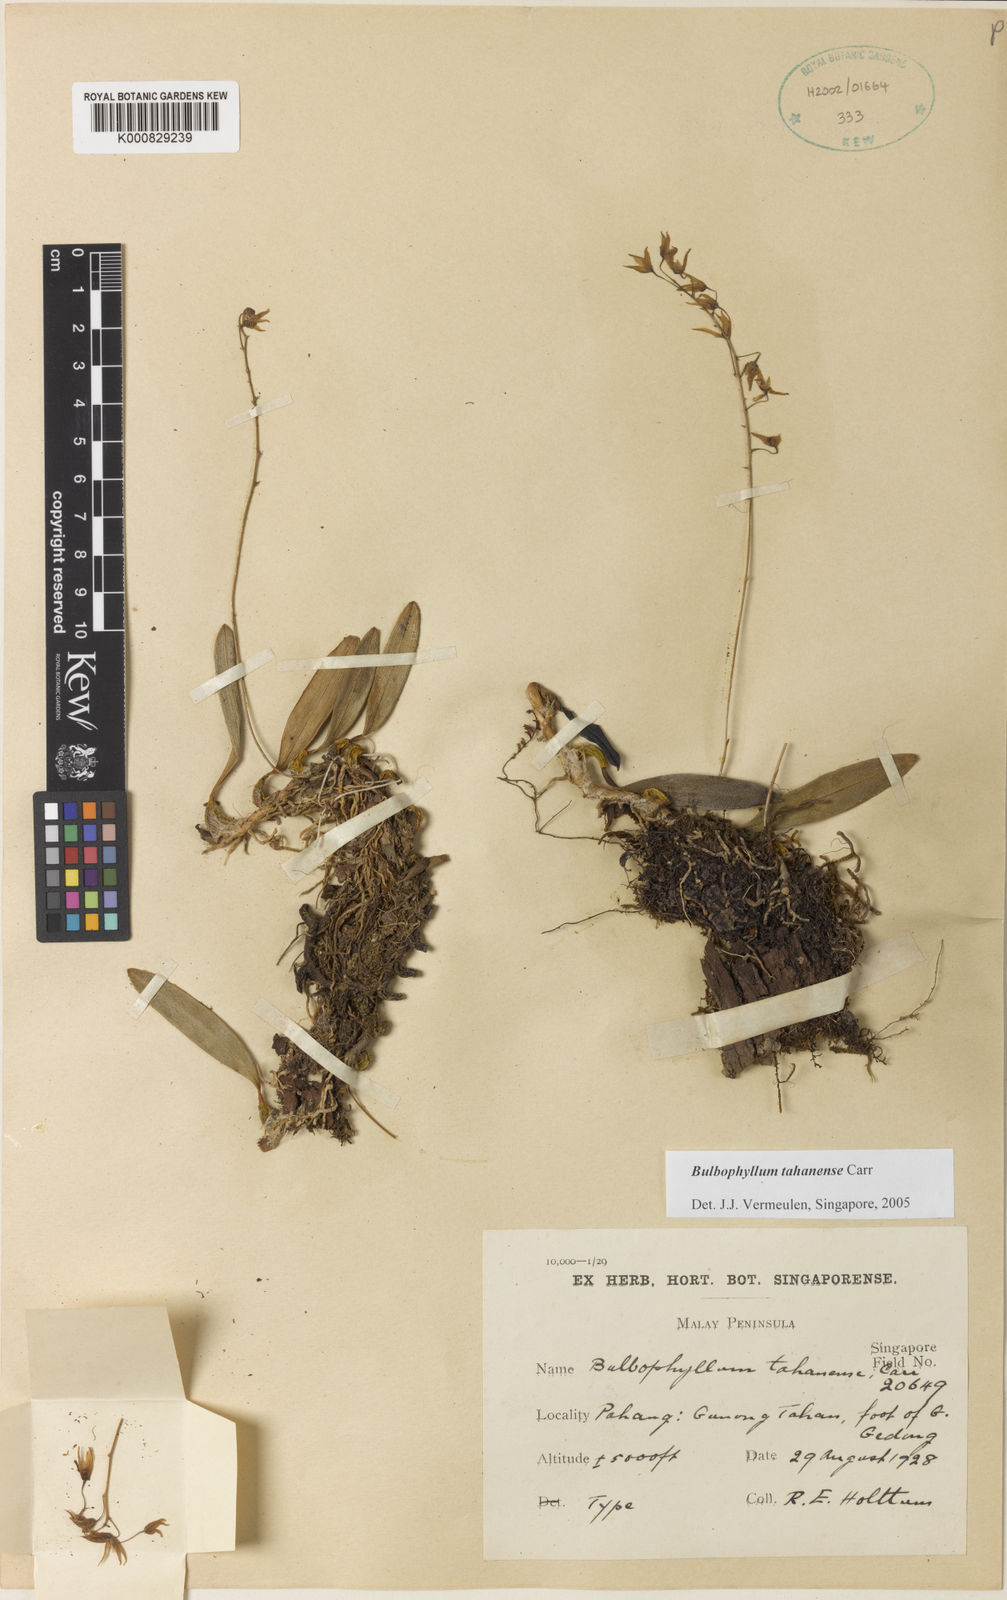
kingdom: Plantae
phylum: Tracheophyta
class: Liliopsida
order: Asparagales
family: Orchidaceae
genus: Bulbophyllum
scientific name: Bulbophyllum tahanense
